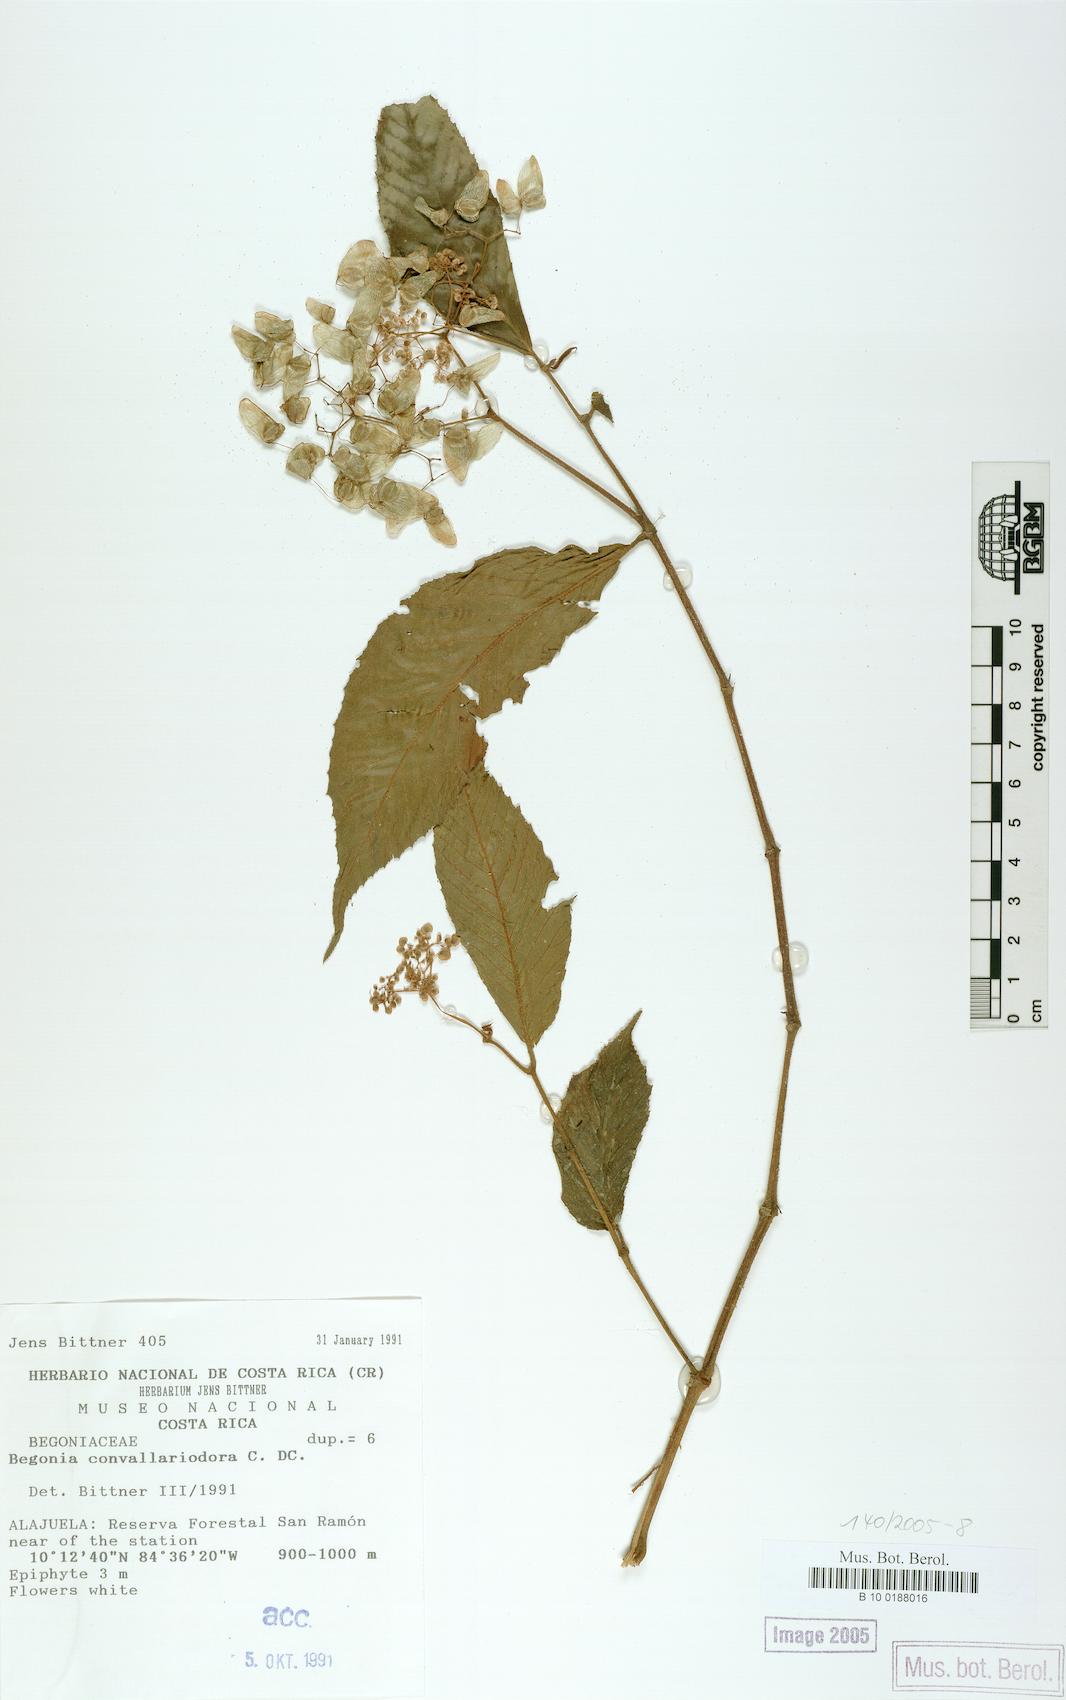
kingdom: Plantae
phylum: Tracheophyta
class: Magnoliopsida
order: Cucurbitales
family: Begoniaceae
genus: Begonia
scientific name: Begonia convallariodora
